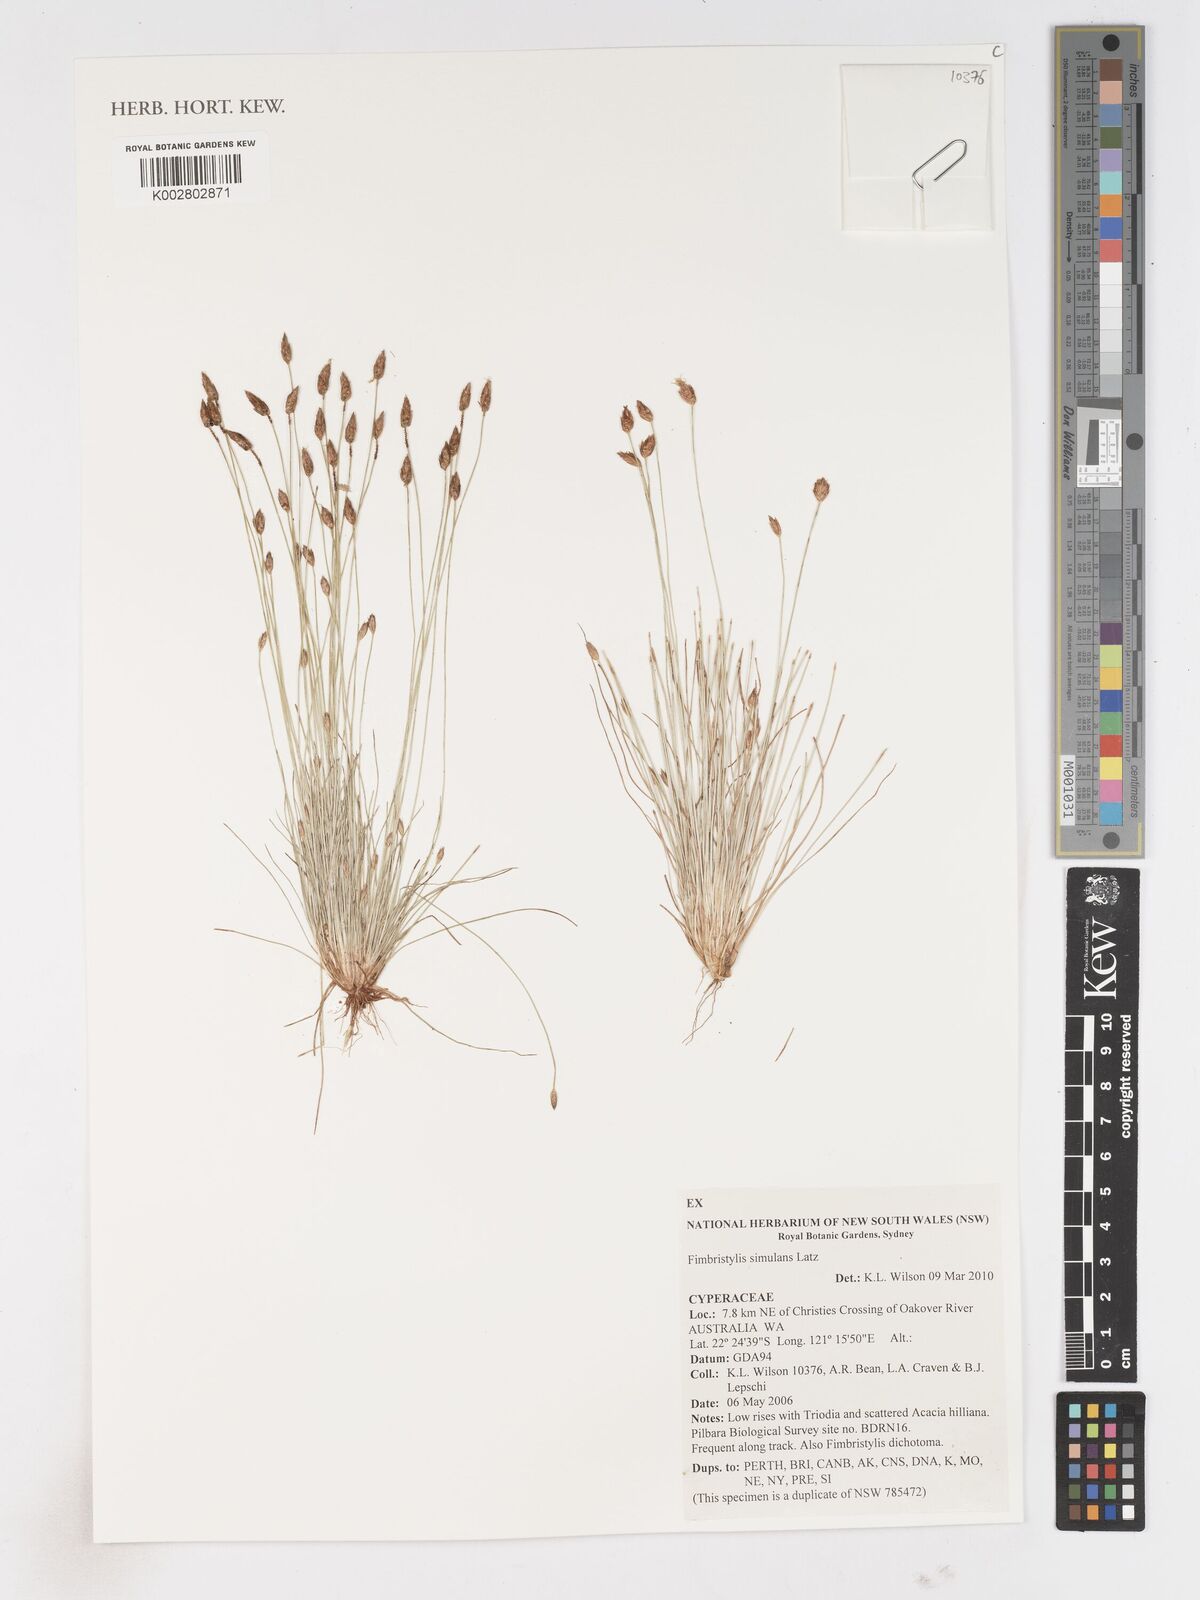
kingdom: Plantae
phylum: Tracheophyta
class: Liliopsida
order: Poales
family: Cyperaceae
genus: Fimbristylis
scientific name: Fimbristylis simulans
